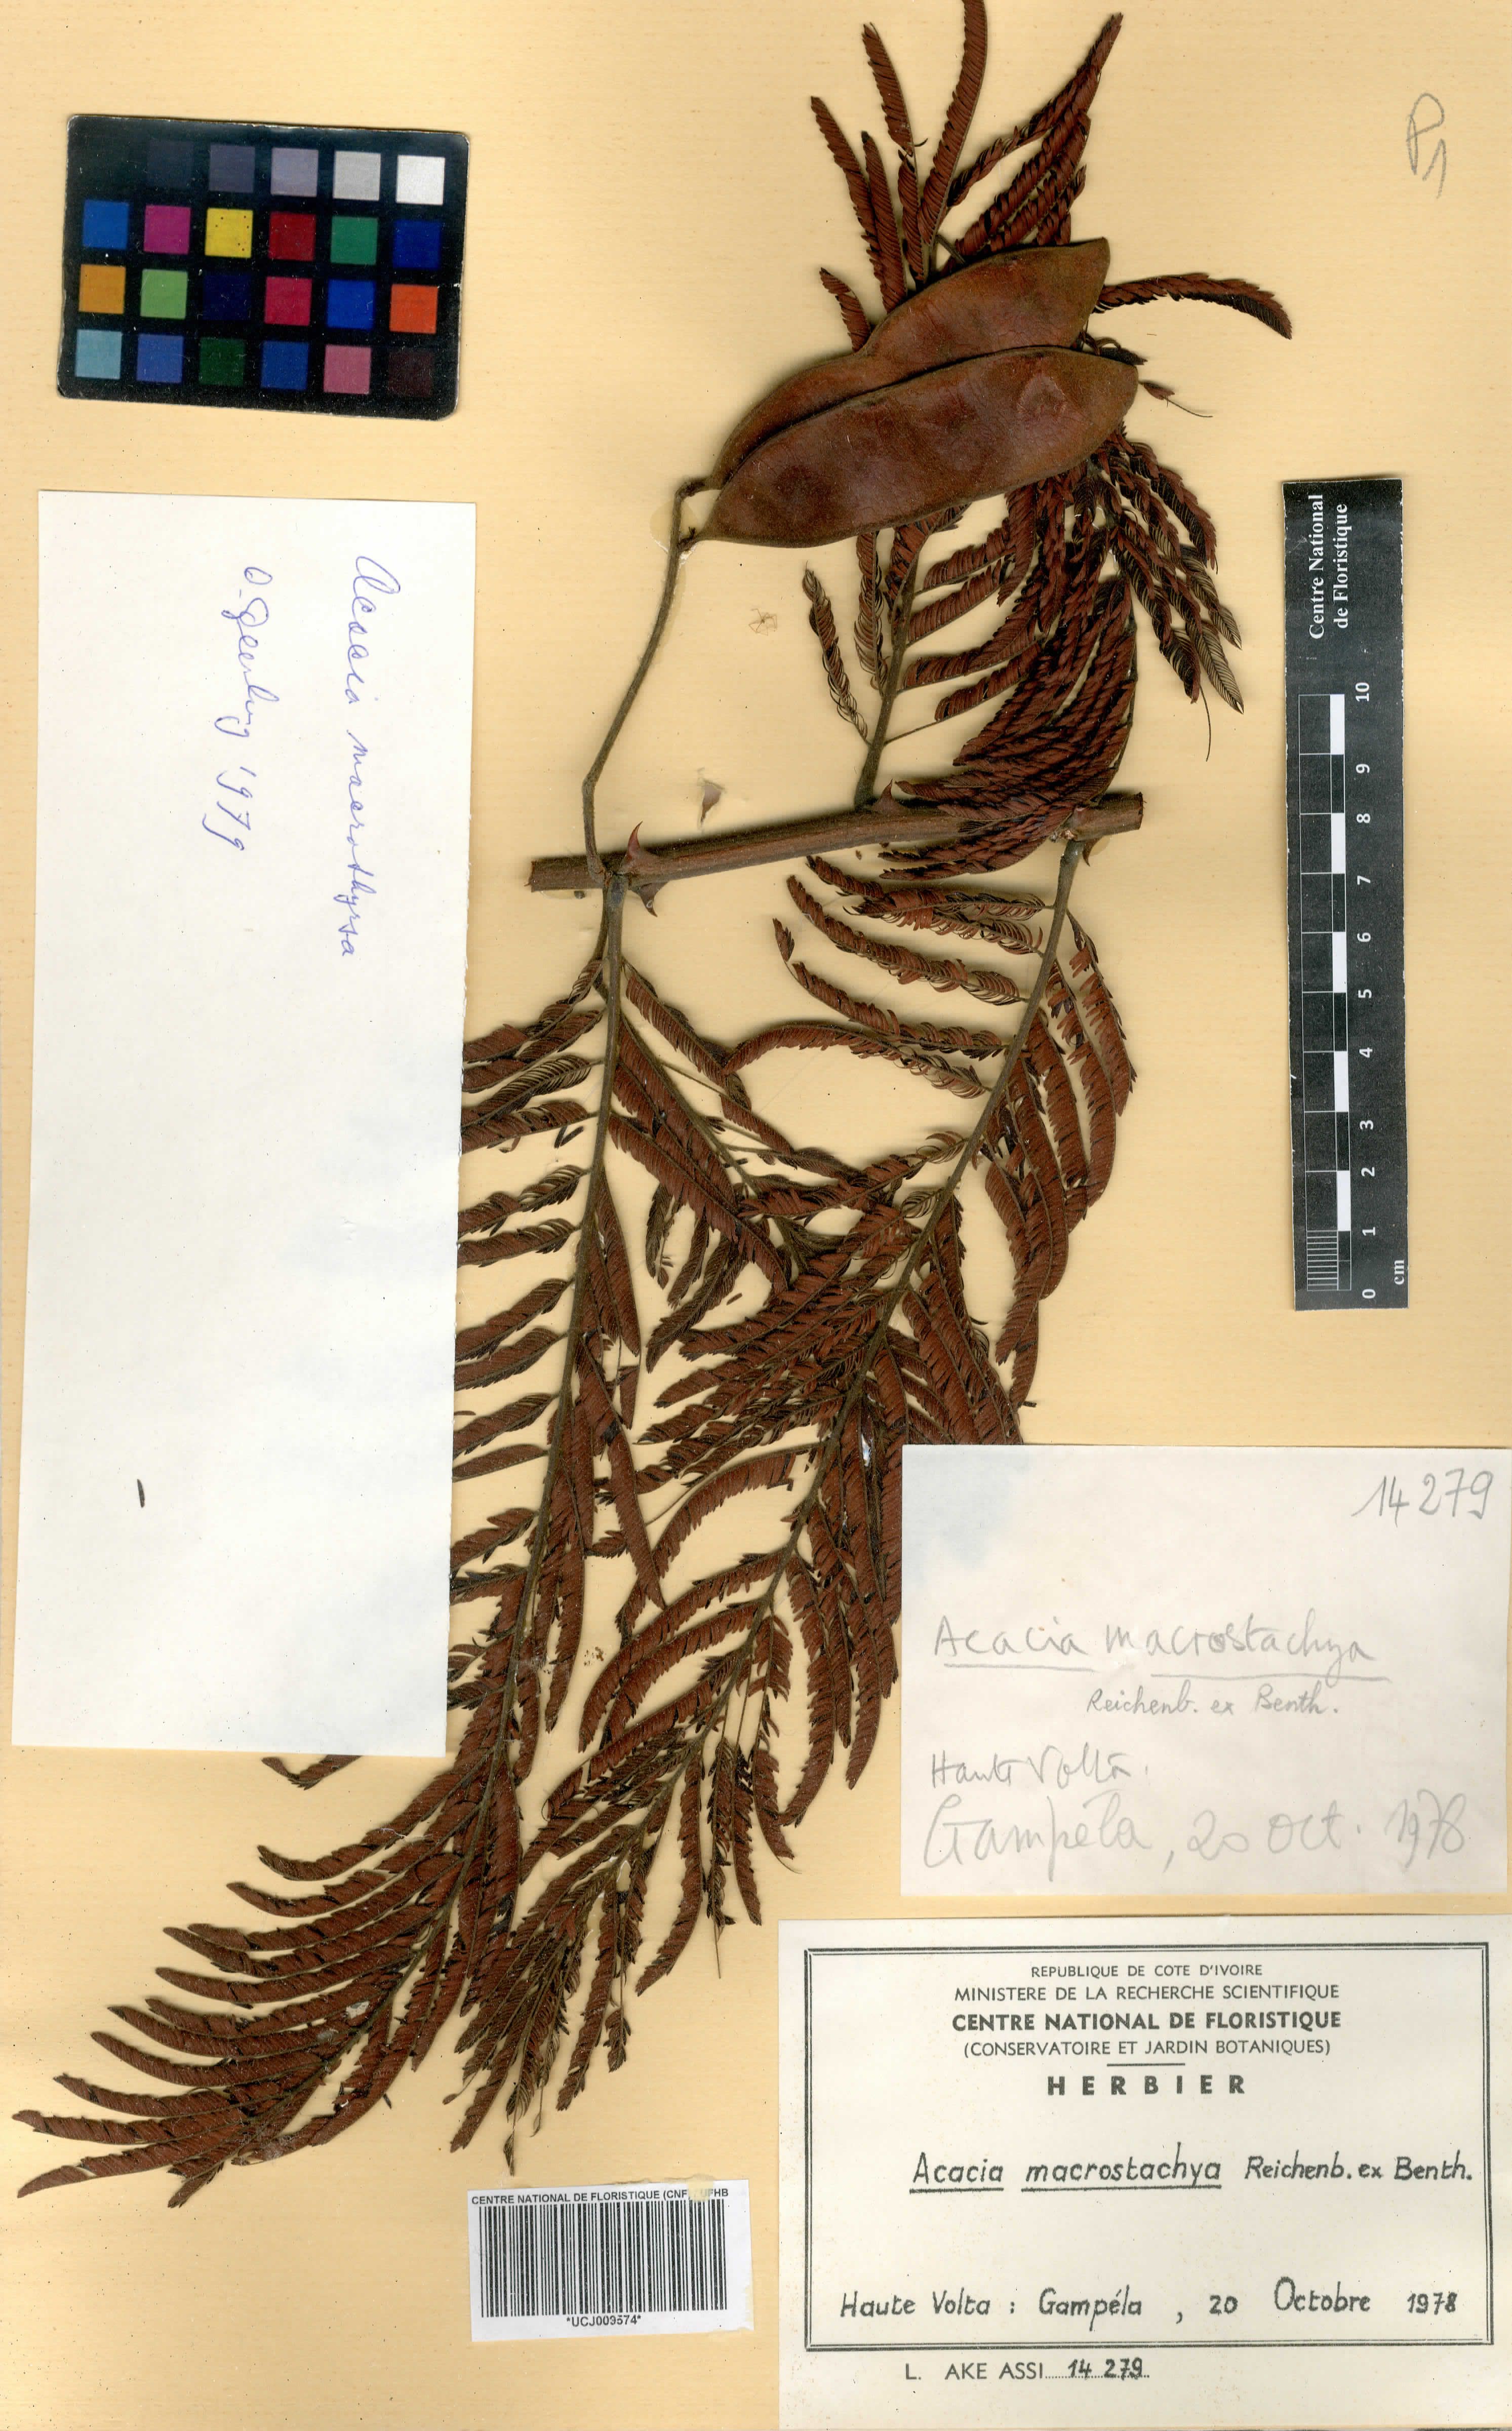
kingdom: Plantae
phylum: Tracheophyta
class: Magnoliopsida
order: Fabales
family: Fabaceae
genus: Senegalia
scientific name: Senegalia macrostachya
